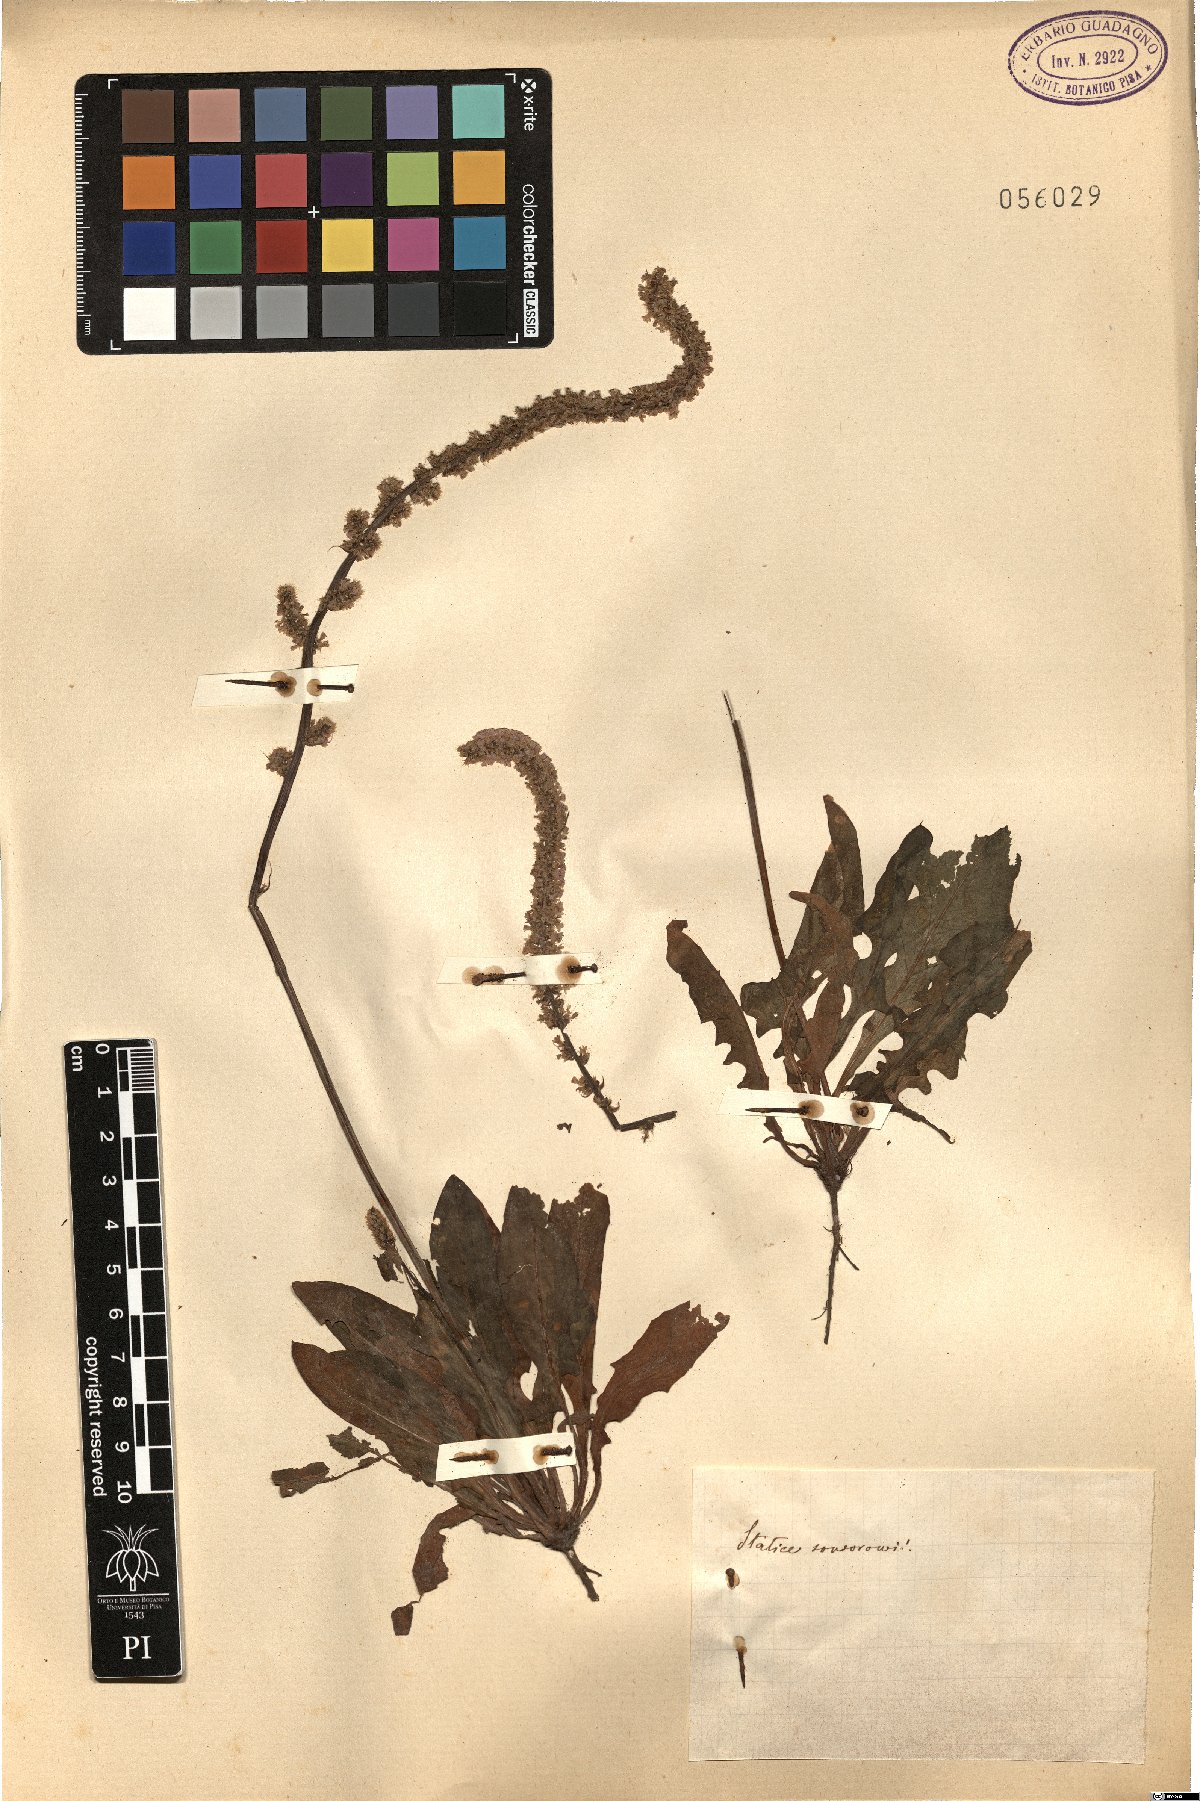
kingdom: Plantae
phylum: Tracheophyta
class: Magnoliopsida
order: Caryophyllales
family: Plumbaginaceae
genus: Psylliostachys
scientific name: Psylliostachys suworowii
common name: Rat-tail statice
